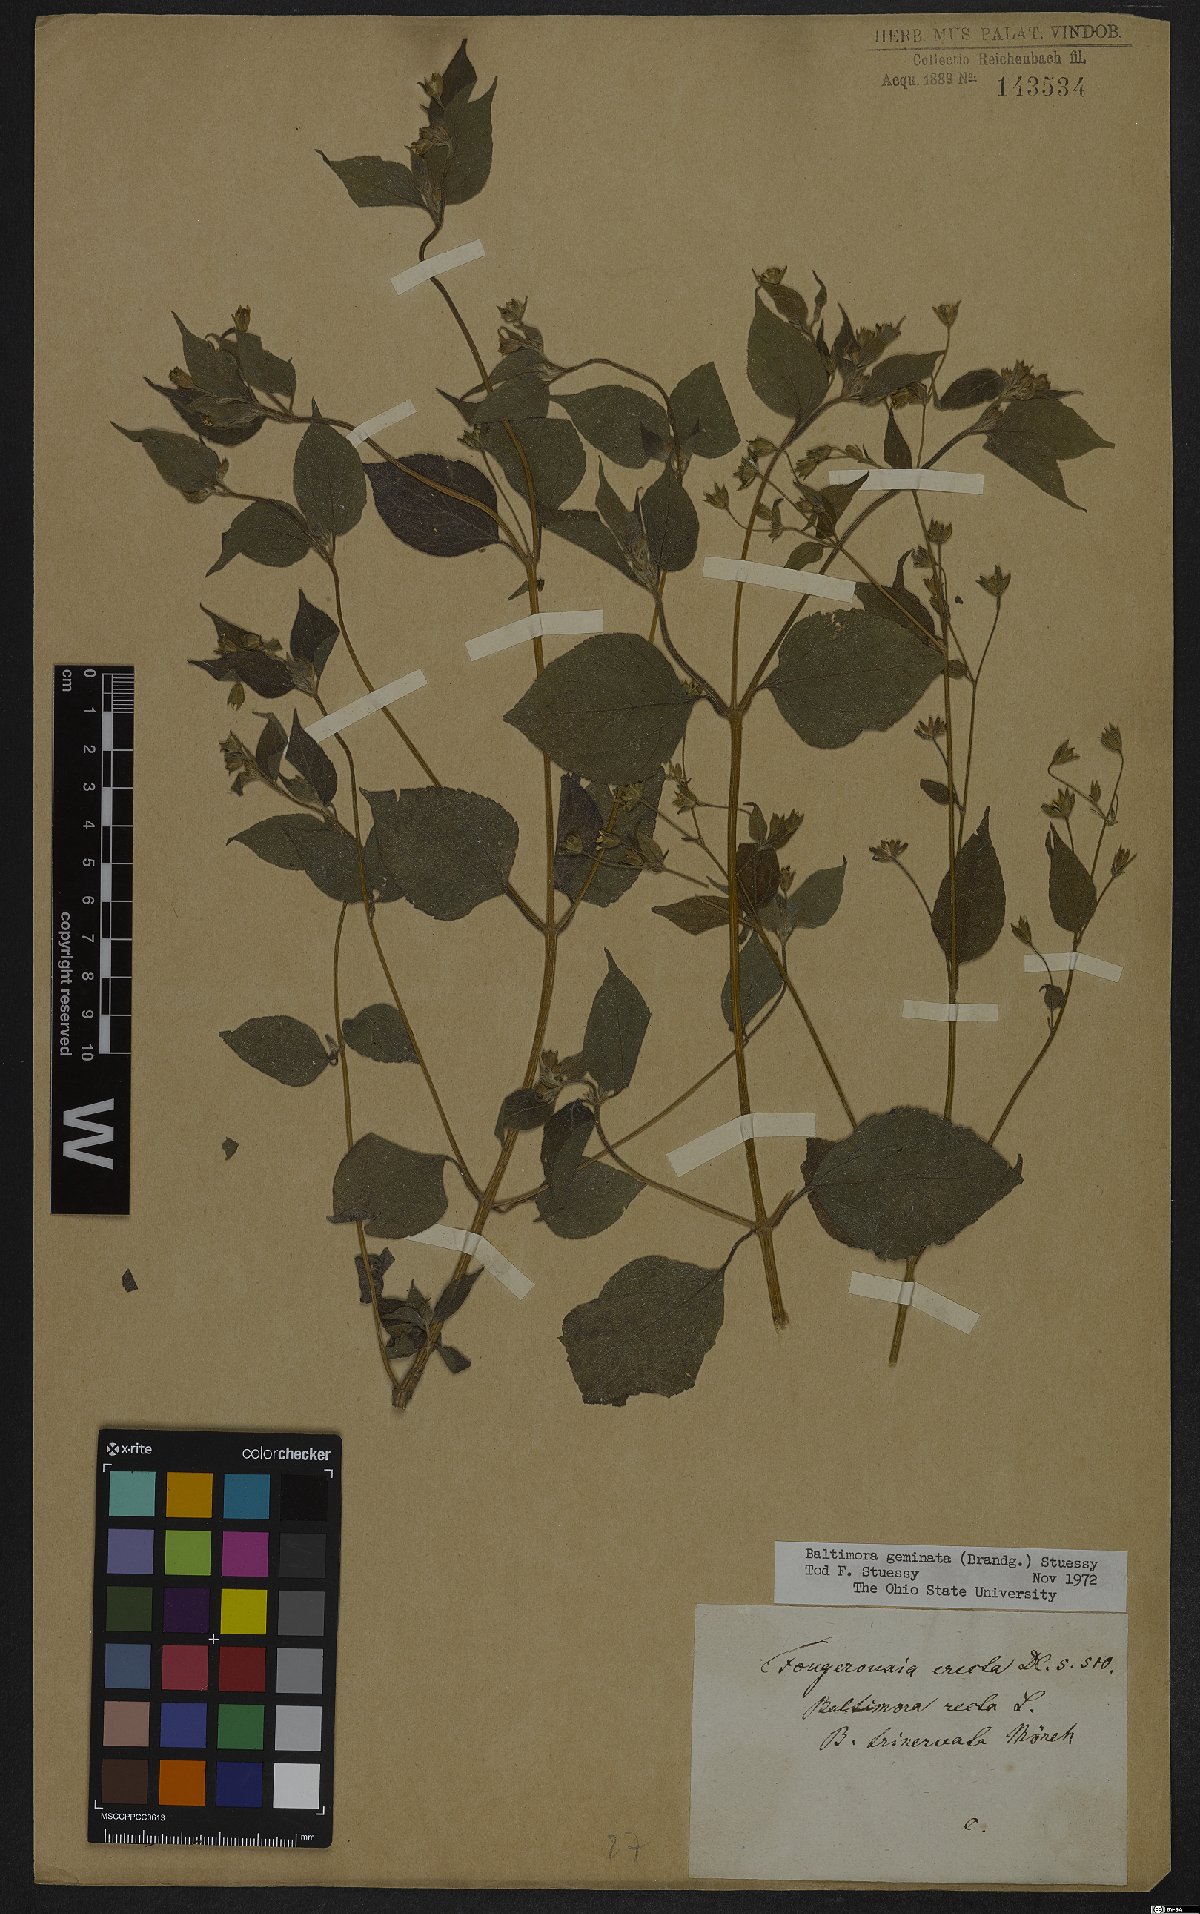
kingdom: Plantae
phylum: Tracheophyta
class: Magnoliopsida
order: Asterales
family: Asteraceae
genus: Baltimora
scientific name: Baltimora geminata
